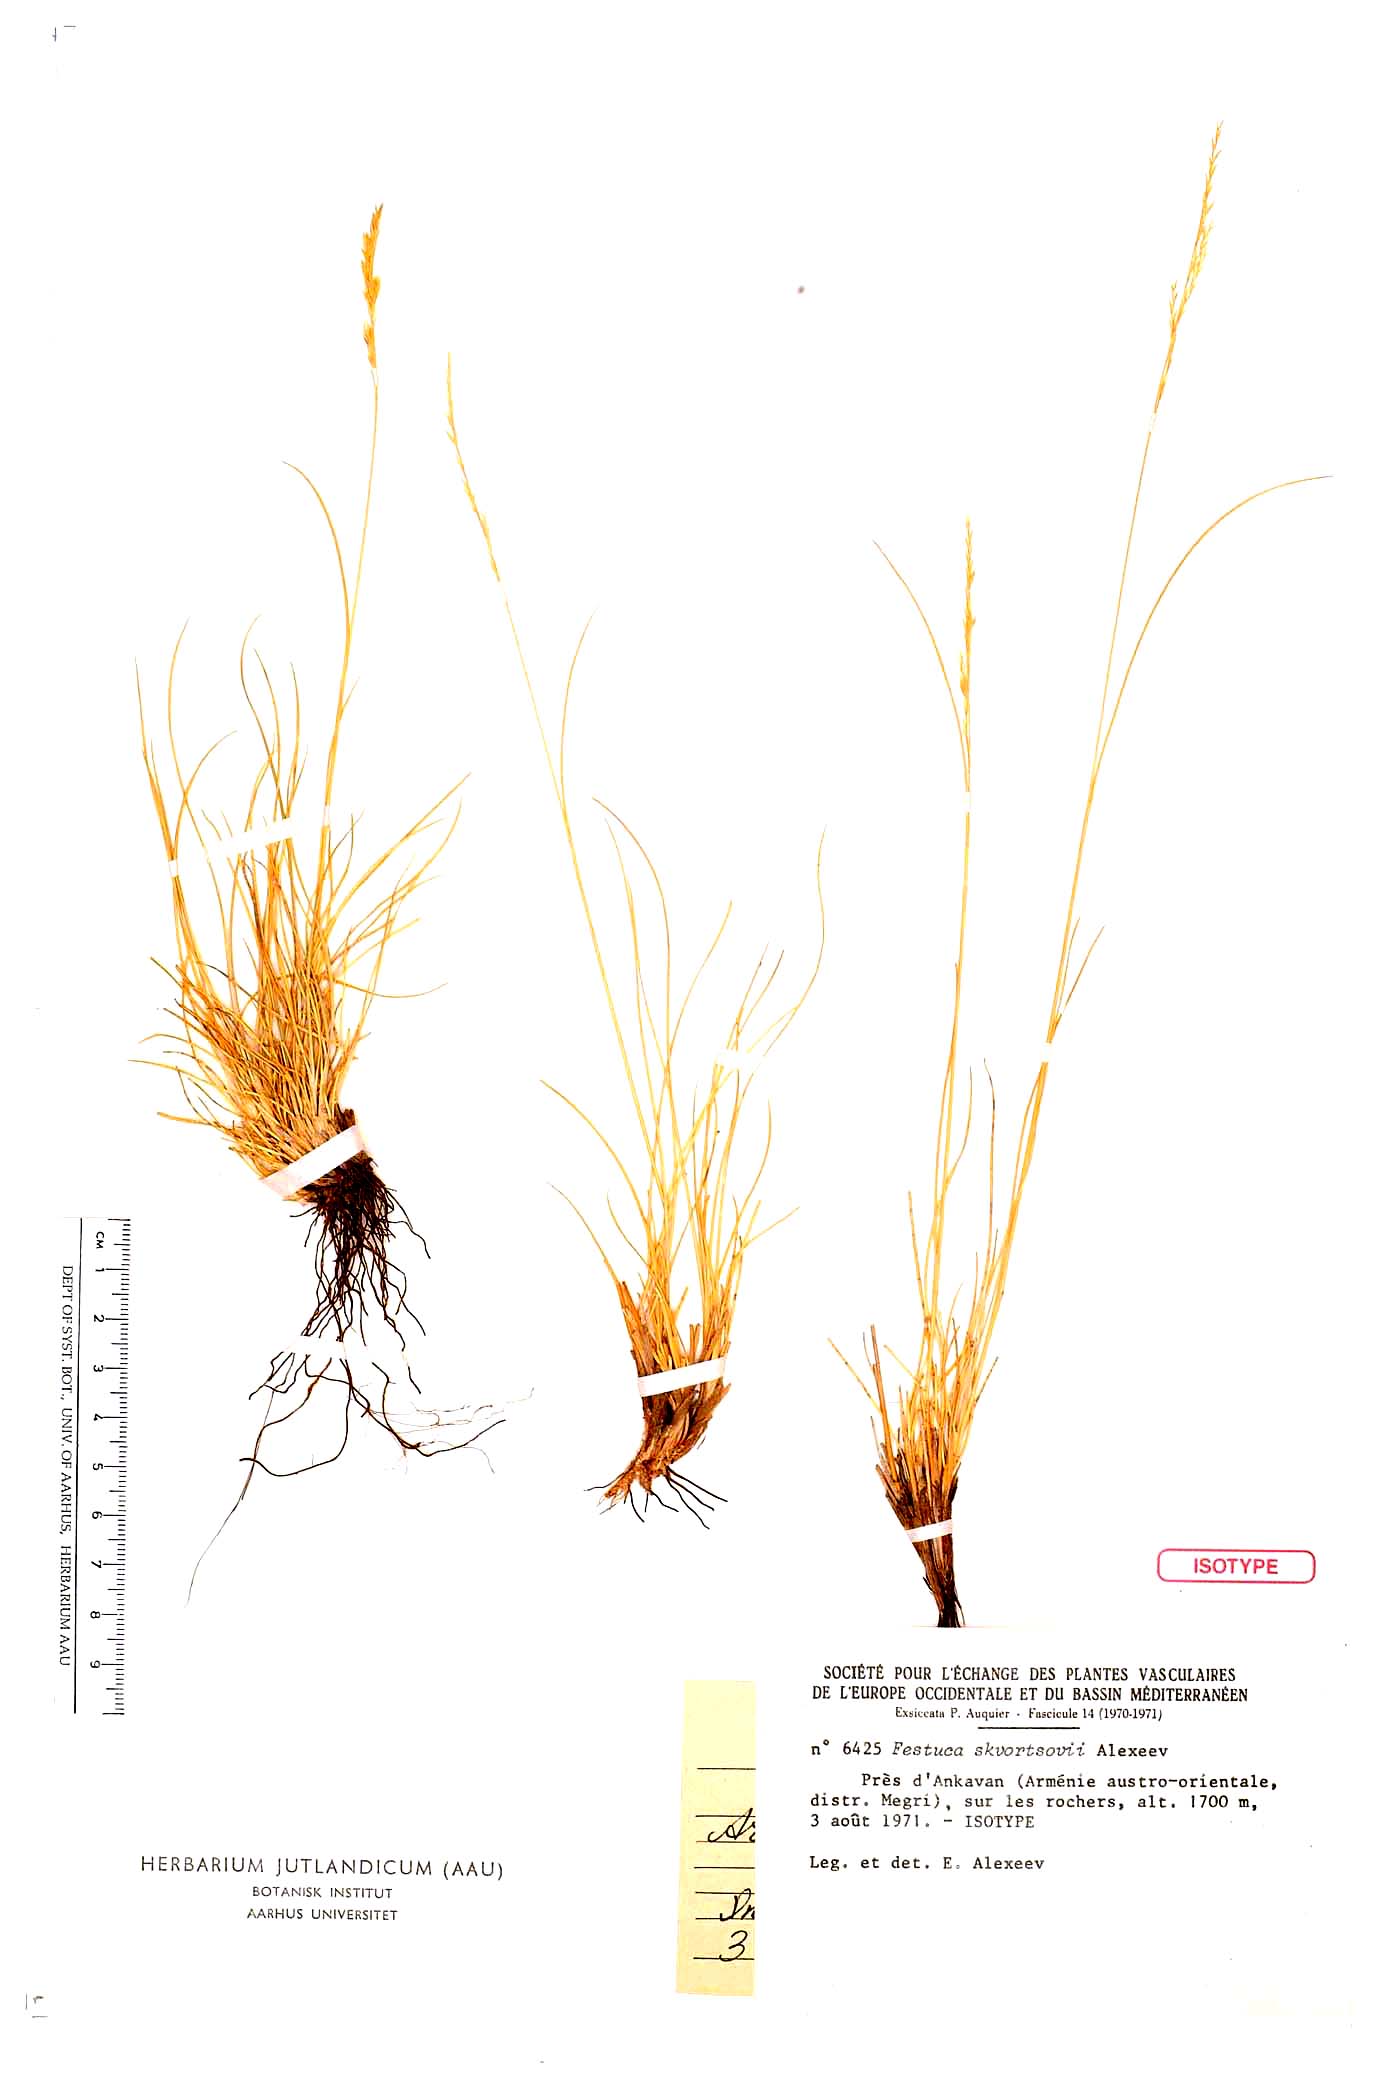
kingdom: Plantae
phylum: Tracheophyta
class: Liliopsida
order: Poales
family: Poaceae
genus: Festuca
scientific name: Festuca skvortsovii
